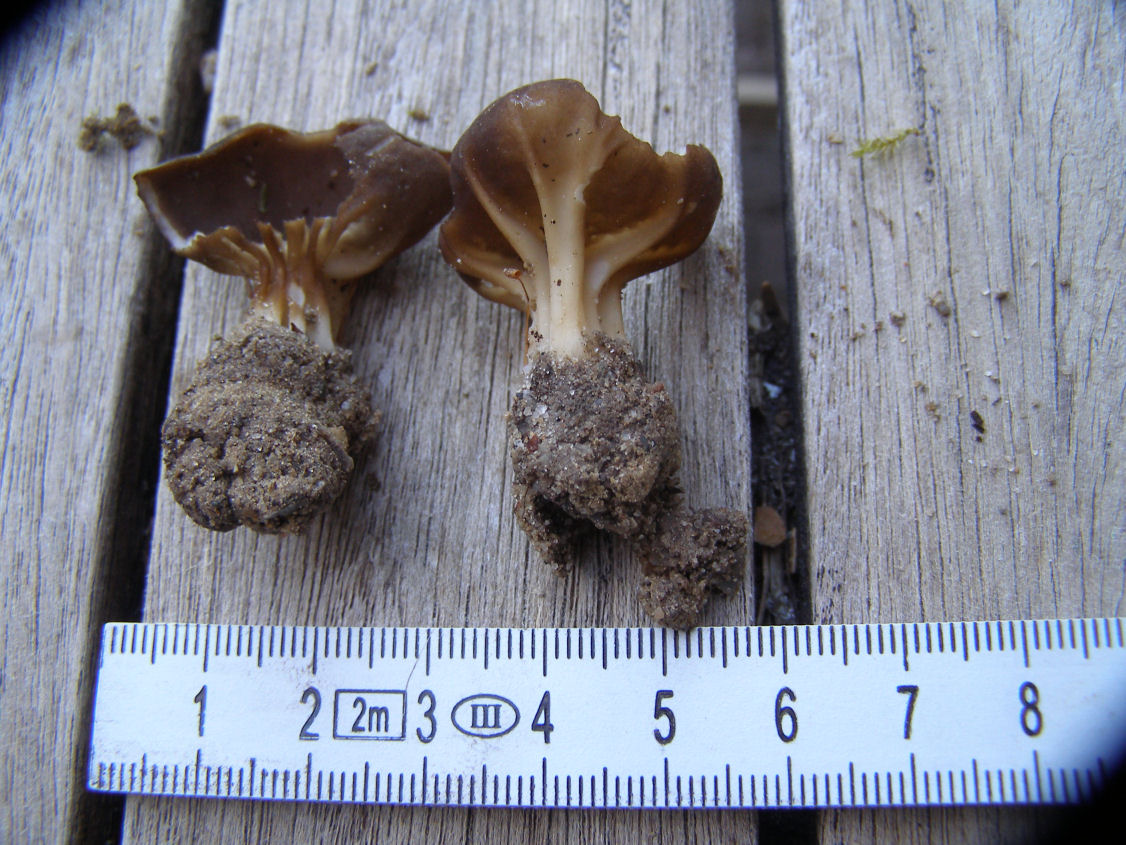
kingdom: Fungi
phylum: Ascomycota
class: Pezizomycetes
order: Pezizales
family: Helvellaceae
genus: Helvella
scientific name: Helvella acetabulum
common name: pokal-foldhat
